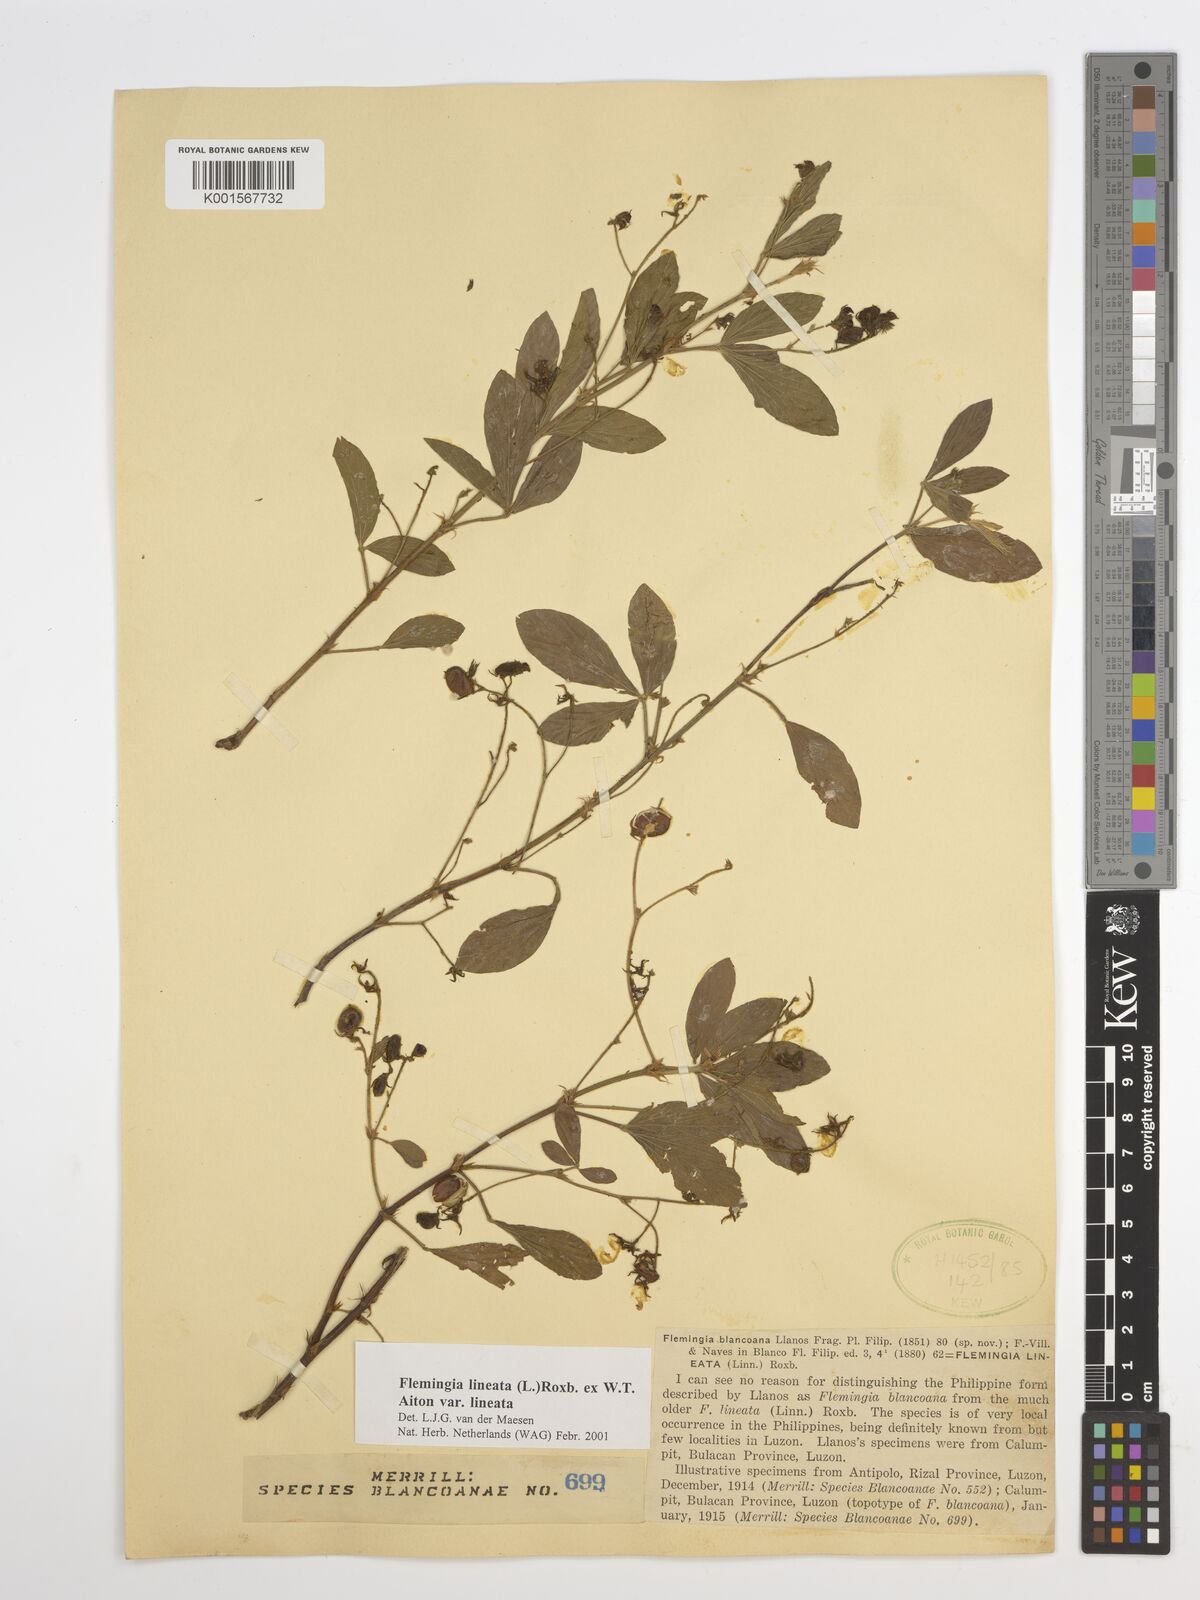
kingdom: Plantae
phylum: Tracheophyta
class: Magnoliopsida
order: Fabales
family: Fabaceae
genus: Flemingia
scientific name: Flemingia lineata
